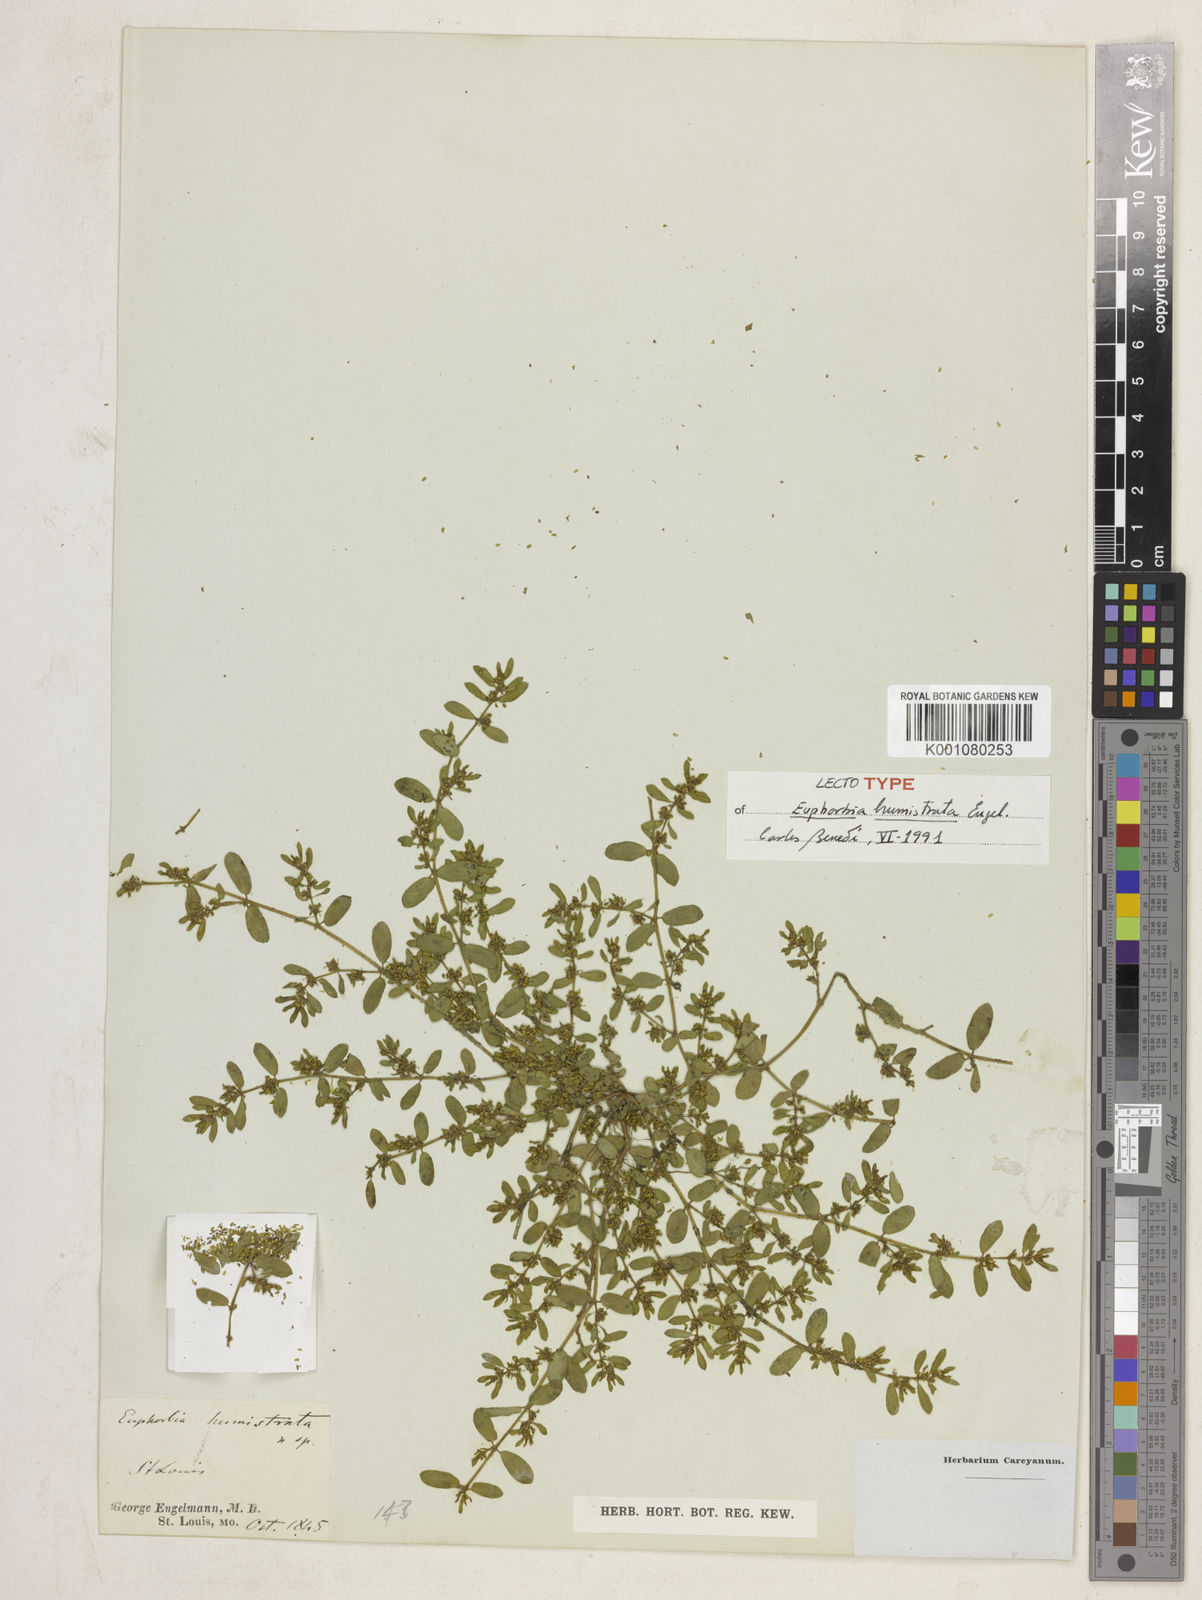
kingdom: Plantae
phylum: Tracheophyta
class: Magnoliopsida
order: Malpighiales
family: Euphorbiaceae
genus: Euphorbia
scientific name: Euphorbia
